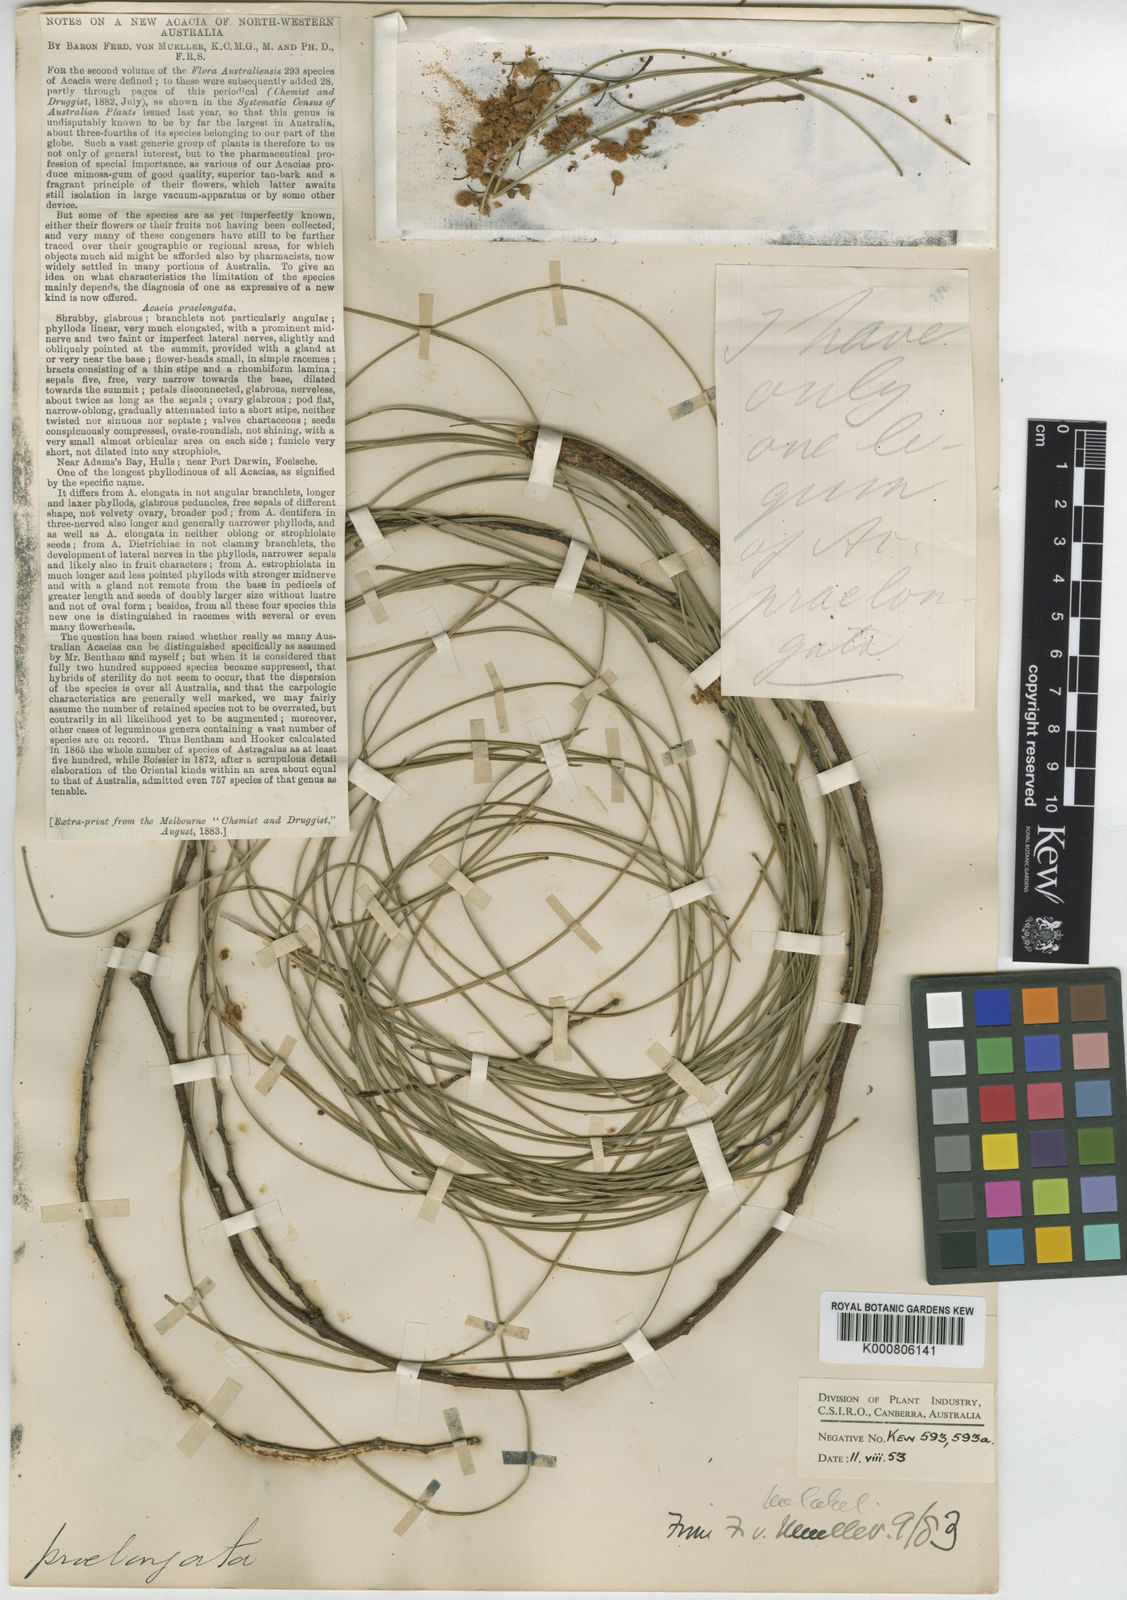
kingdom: Plantae
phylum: Tracheophyta
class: Magnoliopsida
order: Fabales
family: Fabaceae
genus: Acacia
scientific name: Acacia praelongata
